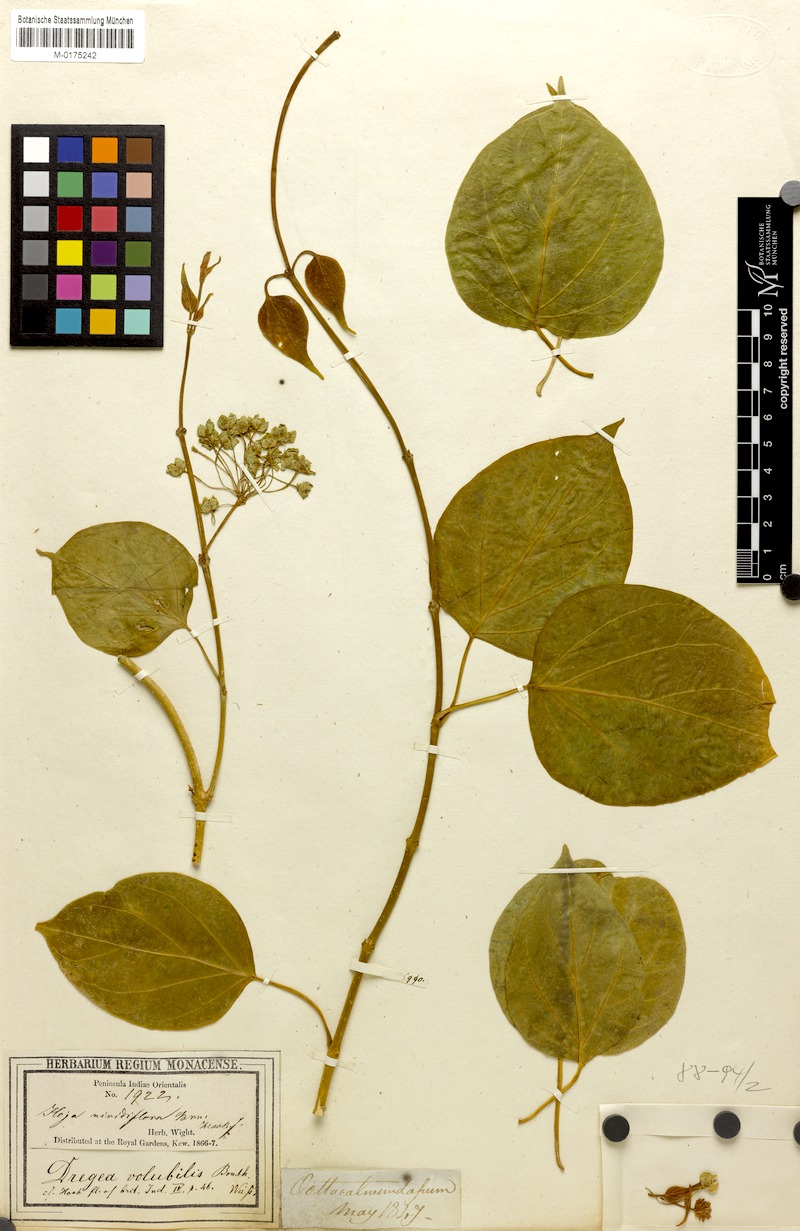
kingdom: Plantae
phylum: Tracheophyta
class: Magnoliopsida
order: Gentianales
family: Apocynaceae
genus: Stephanotis
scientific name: Stephanotis volubilis
